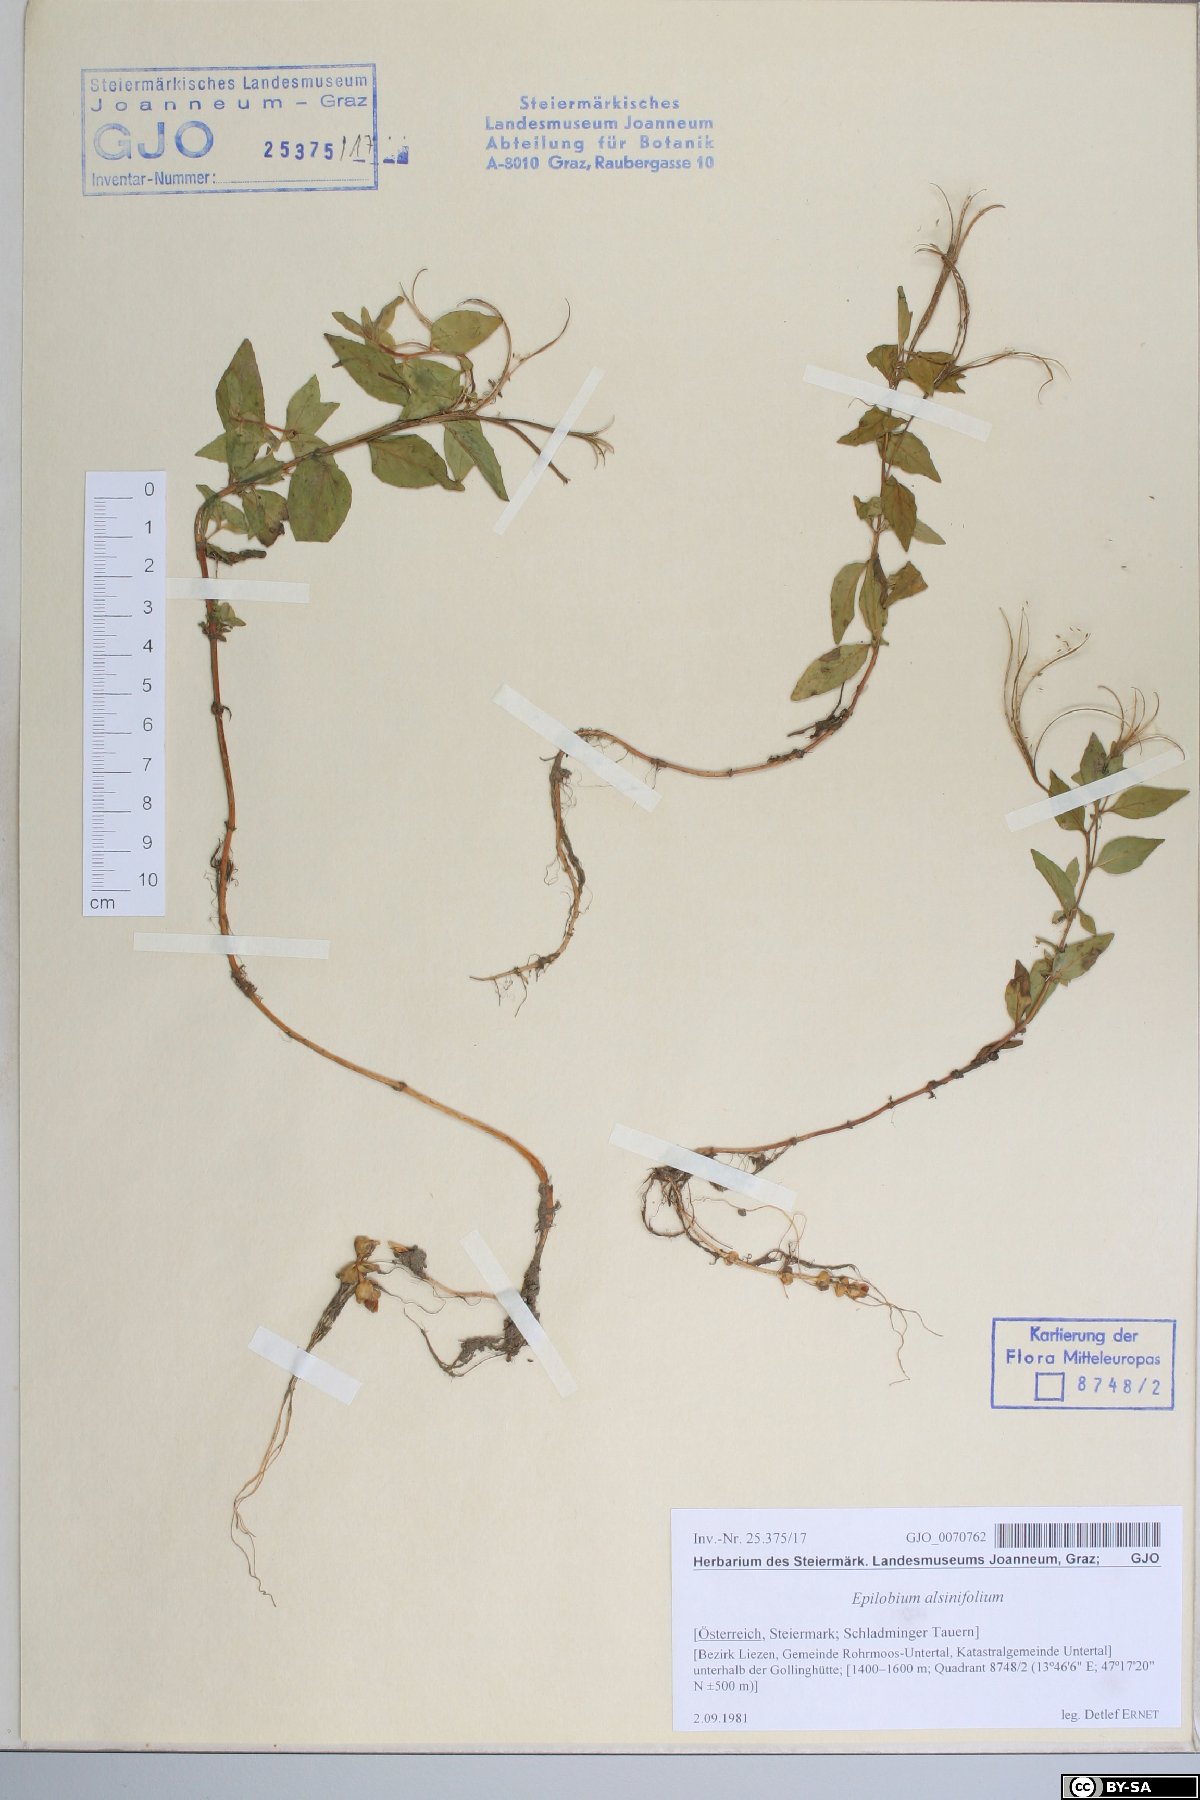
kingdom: Plantae
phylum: Tracheophyta
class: Magnoliopsida
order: Myrtales
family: Onagraceae
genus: Epilobium
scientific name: Epilobium alsinifolium
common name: Chickweed willowherb
